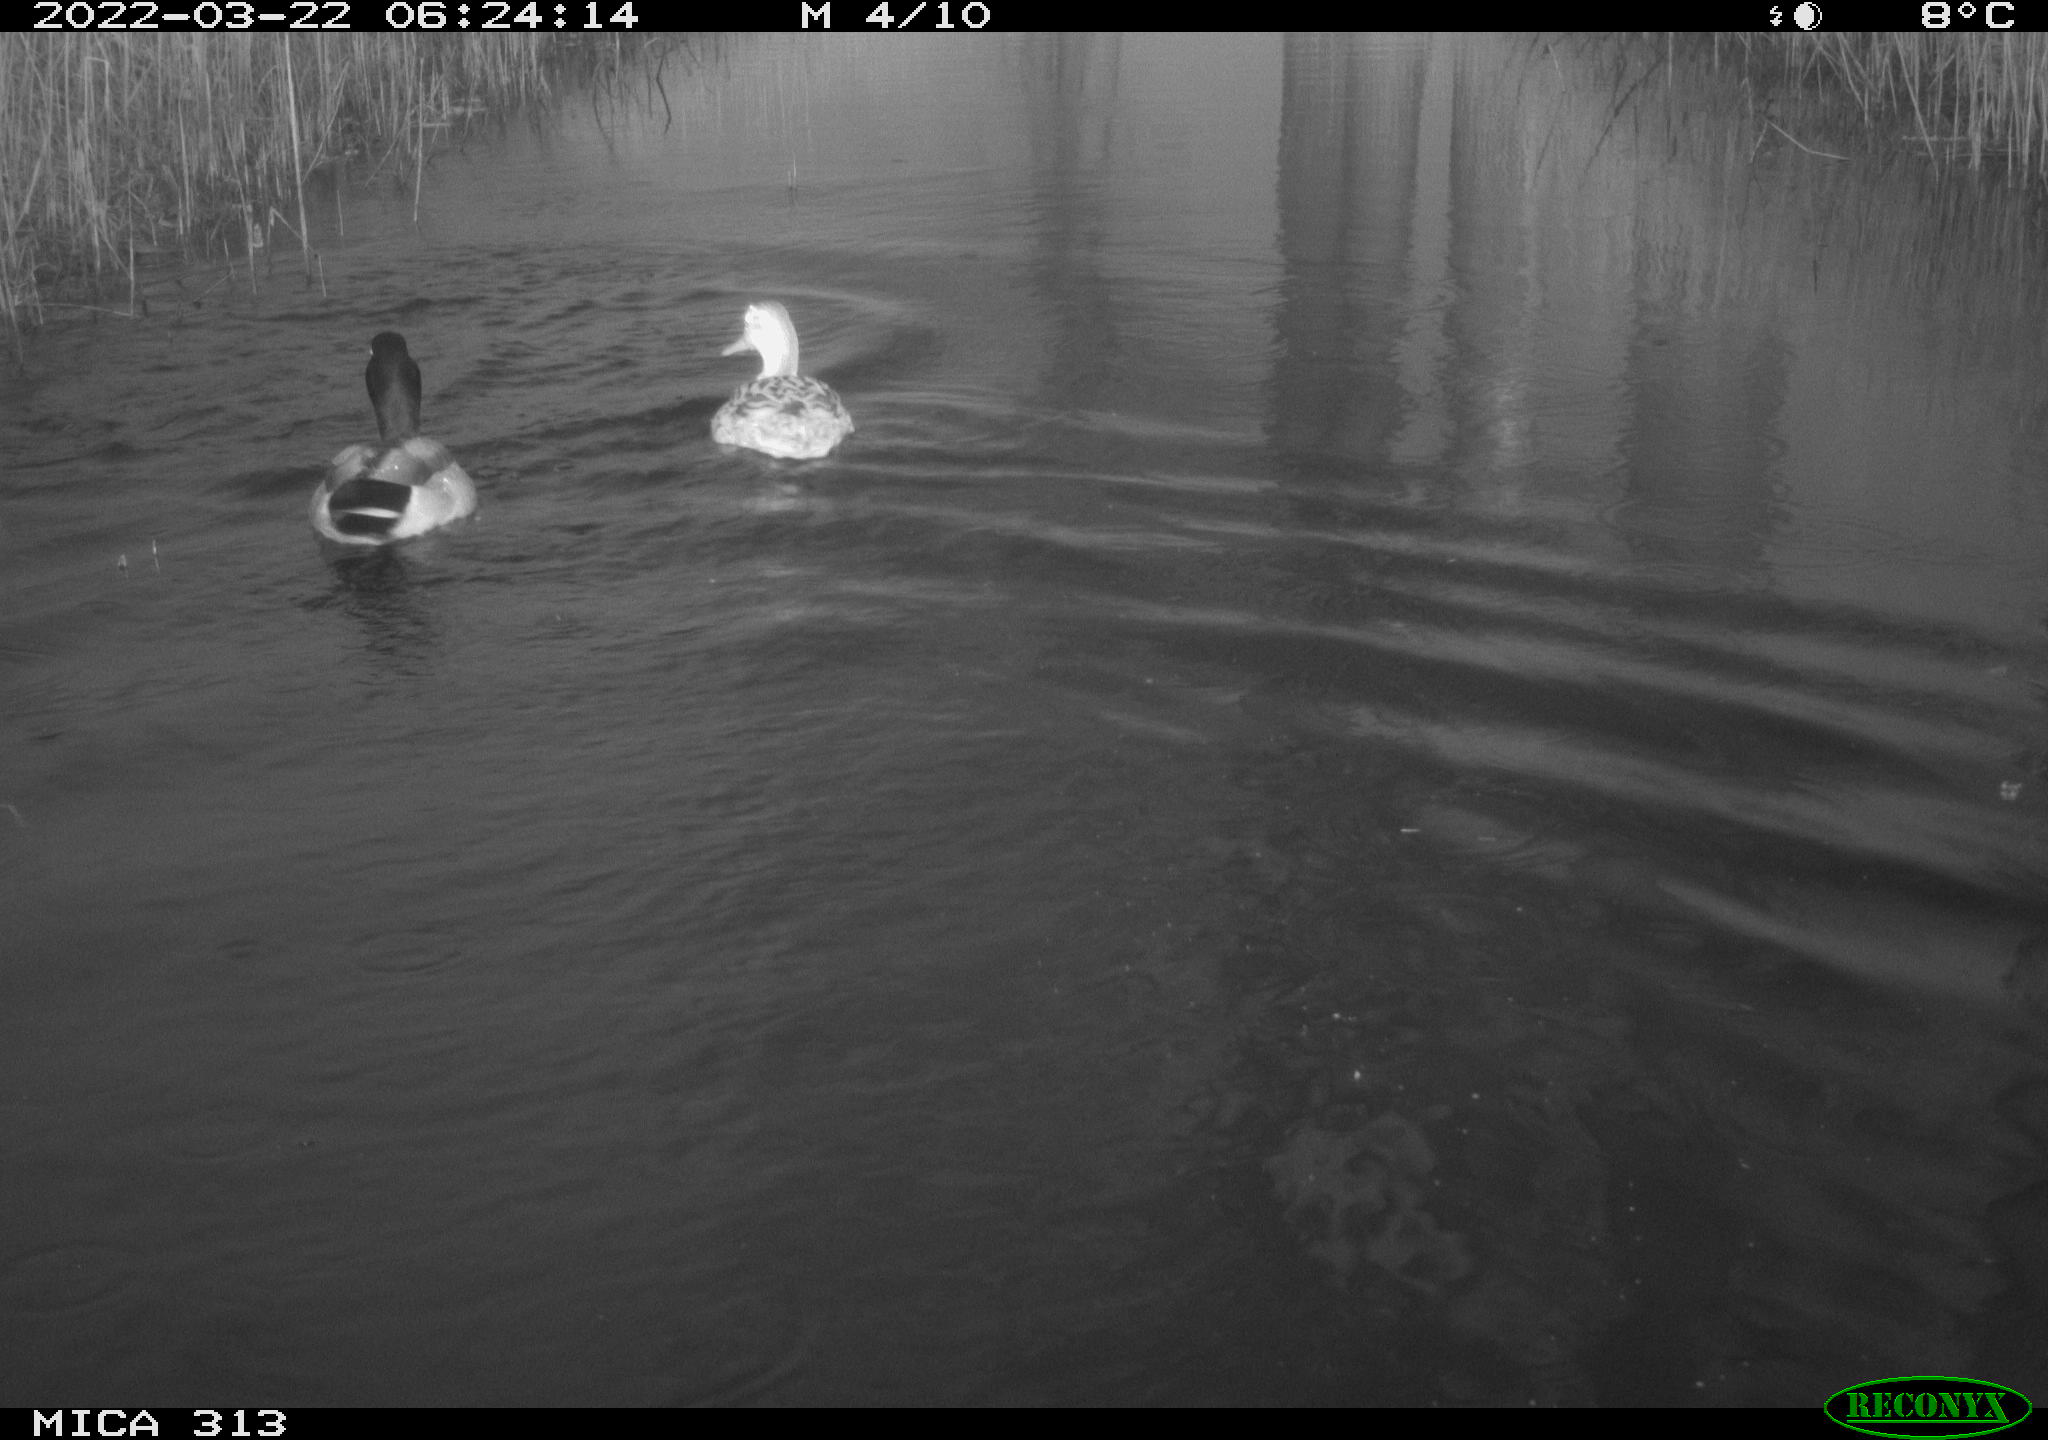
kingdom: Animalia
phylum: Chordata
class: Aves
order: Anseriformes
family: Anatidae
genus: Anas
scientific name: Anas platyrhynchos
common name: Mallard
